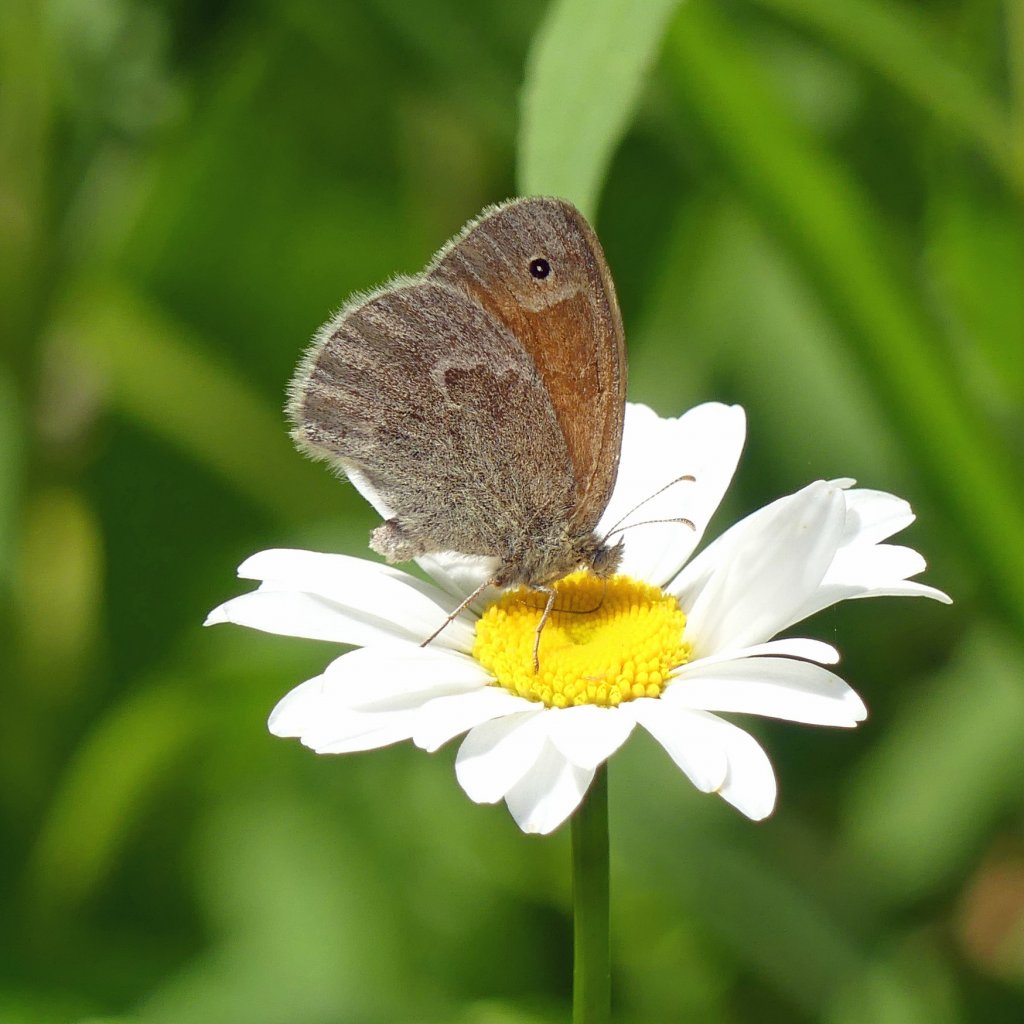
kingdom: Animalia
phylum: Arthropoda
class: Insecta
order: Lepidoptera
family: Nymphalidae
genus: Coenonympha
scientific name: Coenonympha tullia
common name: Large Heath
